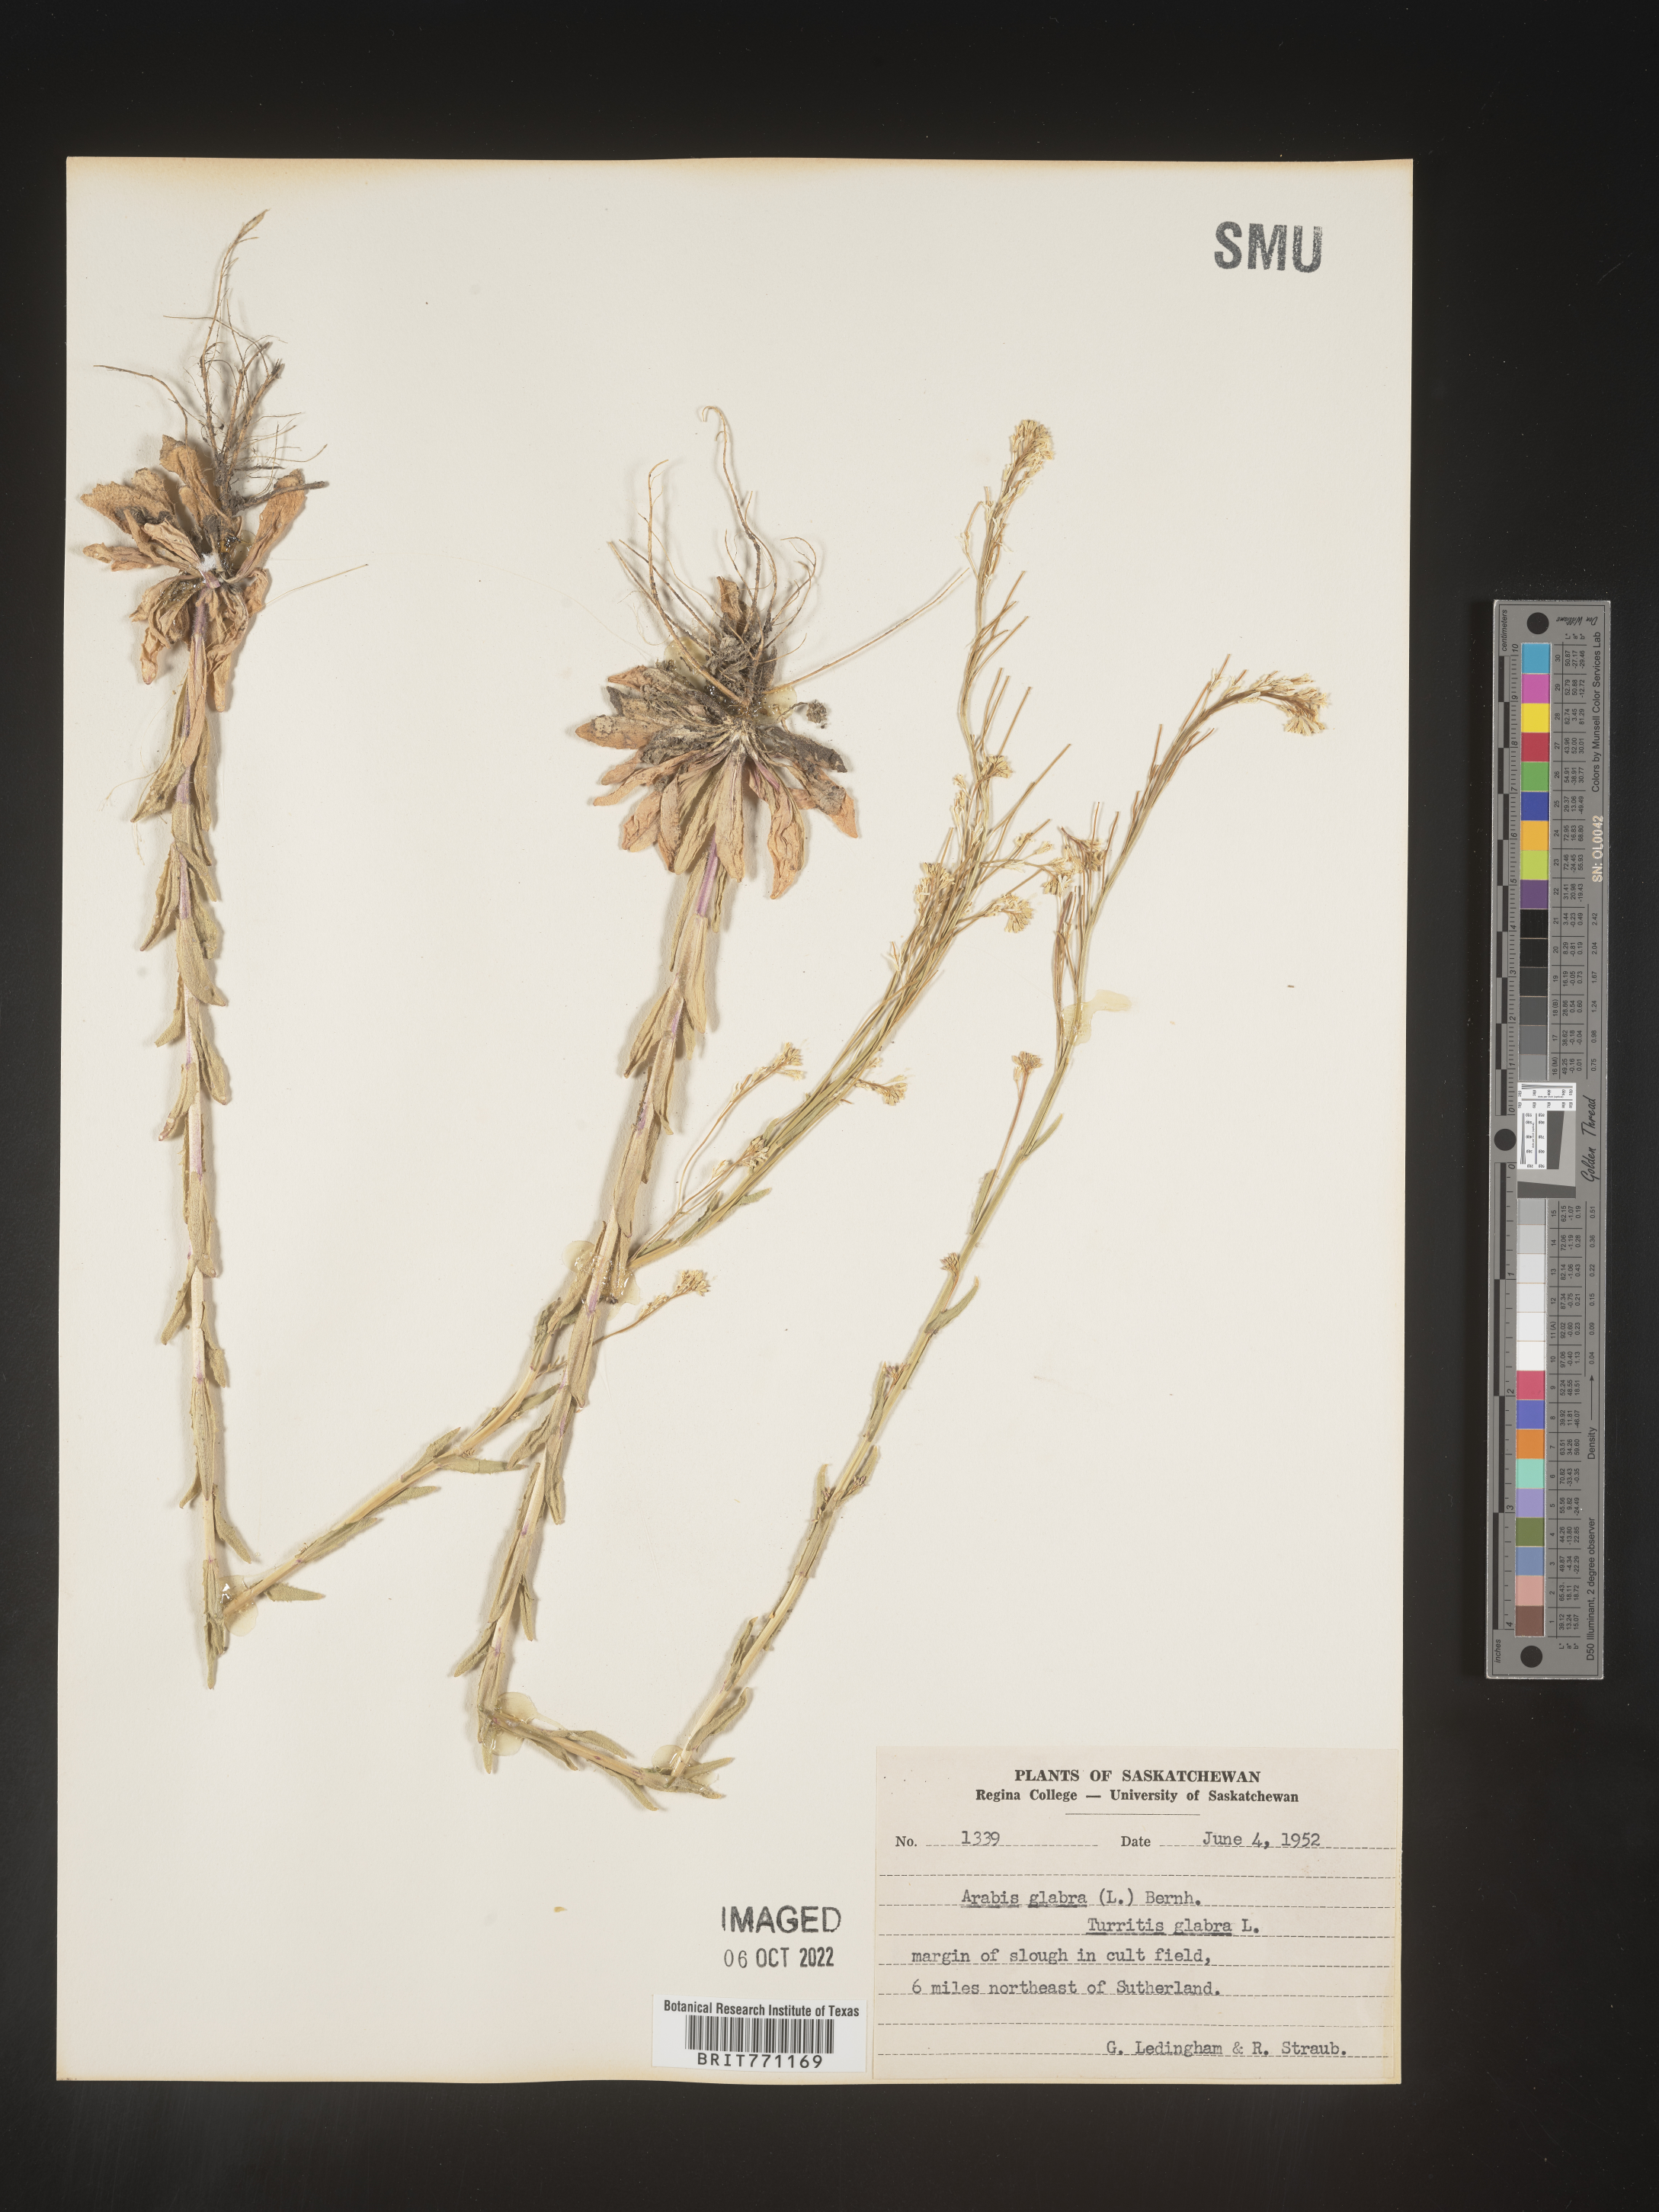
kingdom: Plantae
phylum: Tracheophyta
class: Magnoliopsida
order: Brassicales
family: Brassicaceae
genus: Arabis
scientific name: Arabis
